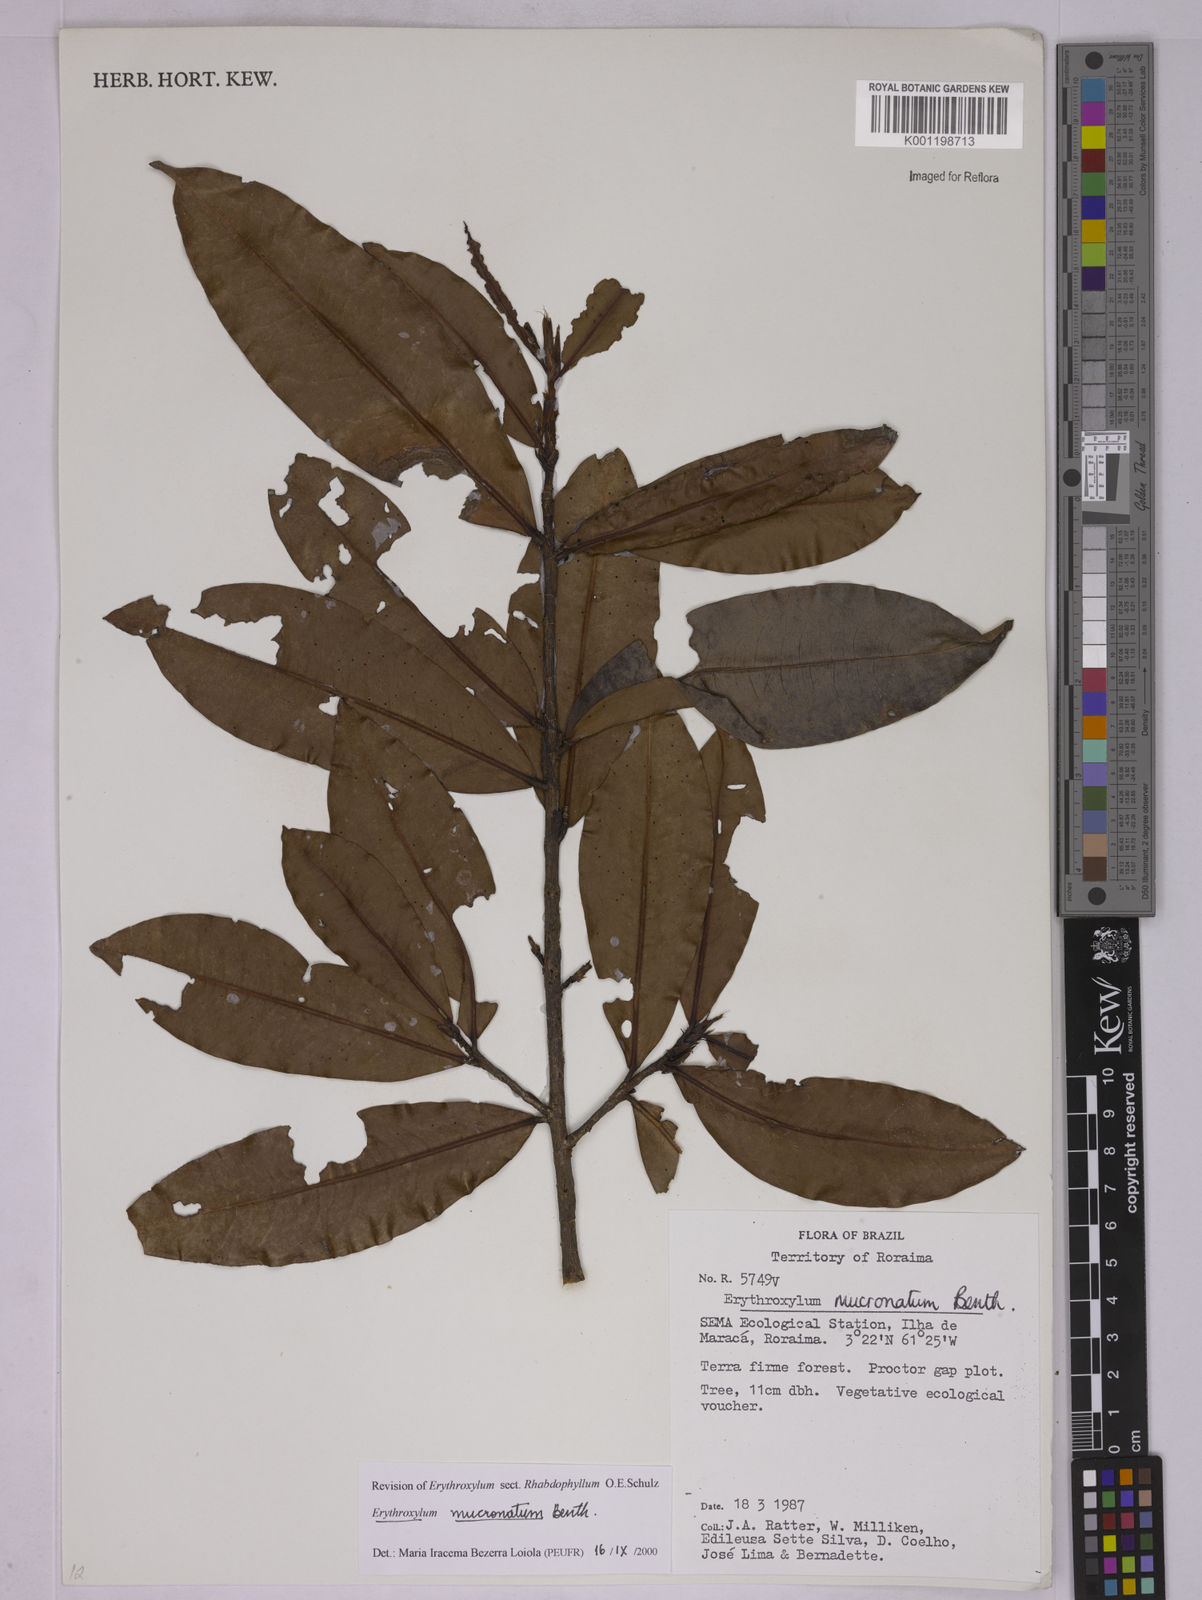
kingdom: Plantae
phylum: Tracheophyta
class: Magnoliopsida
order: Malpighiales
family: Erythroxylaceae
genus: Erythroxylum
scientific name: Erythroxylum mucronatum
